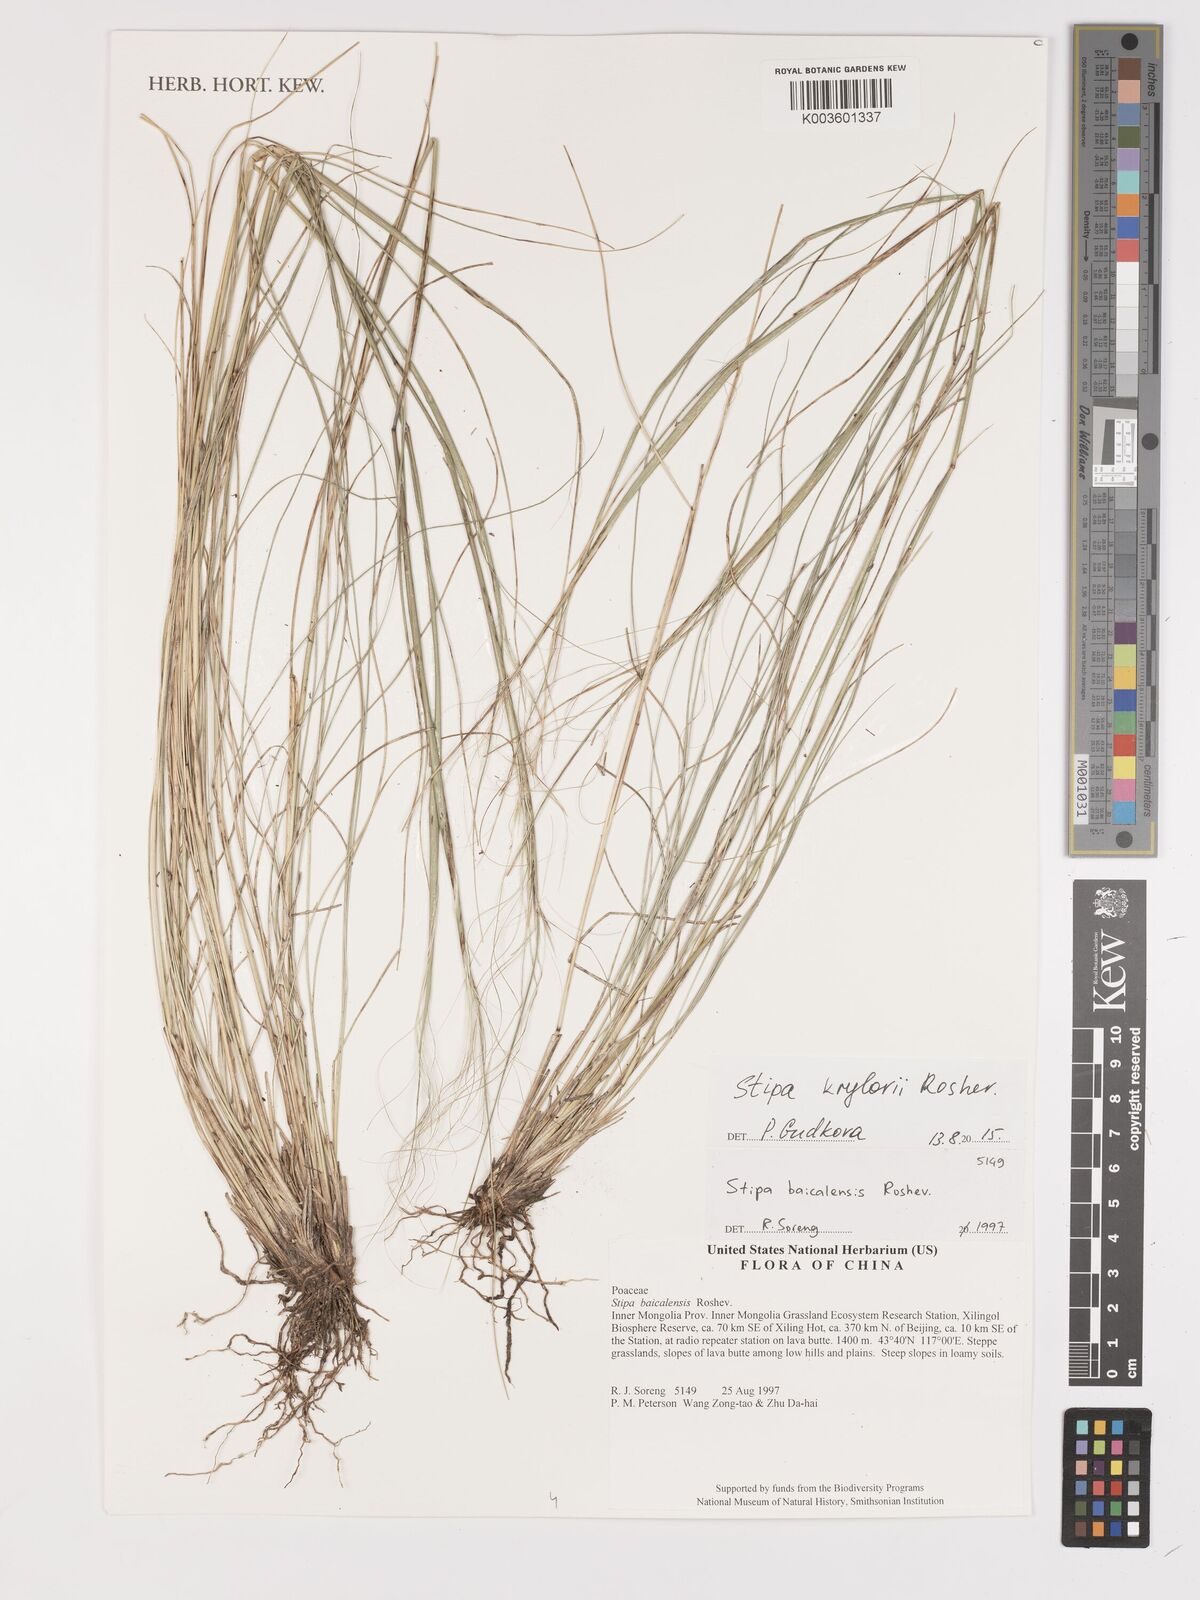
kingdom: Plantae
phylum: Tracheophyta
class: Liliopsida
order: Poales
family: Poaceae
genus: Stipa
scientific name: Stipa krylovii
